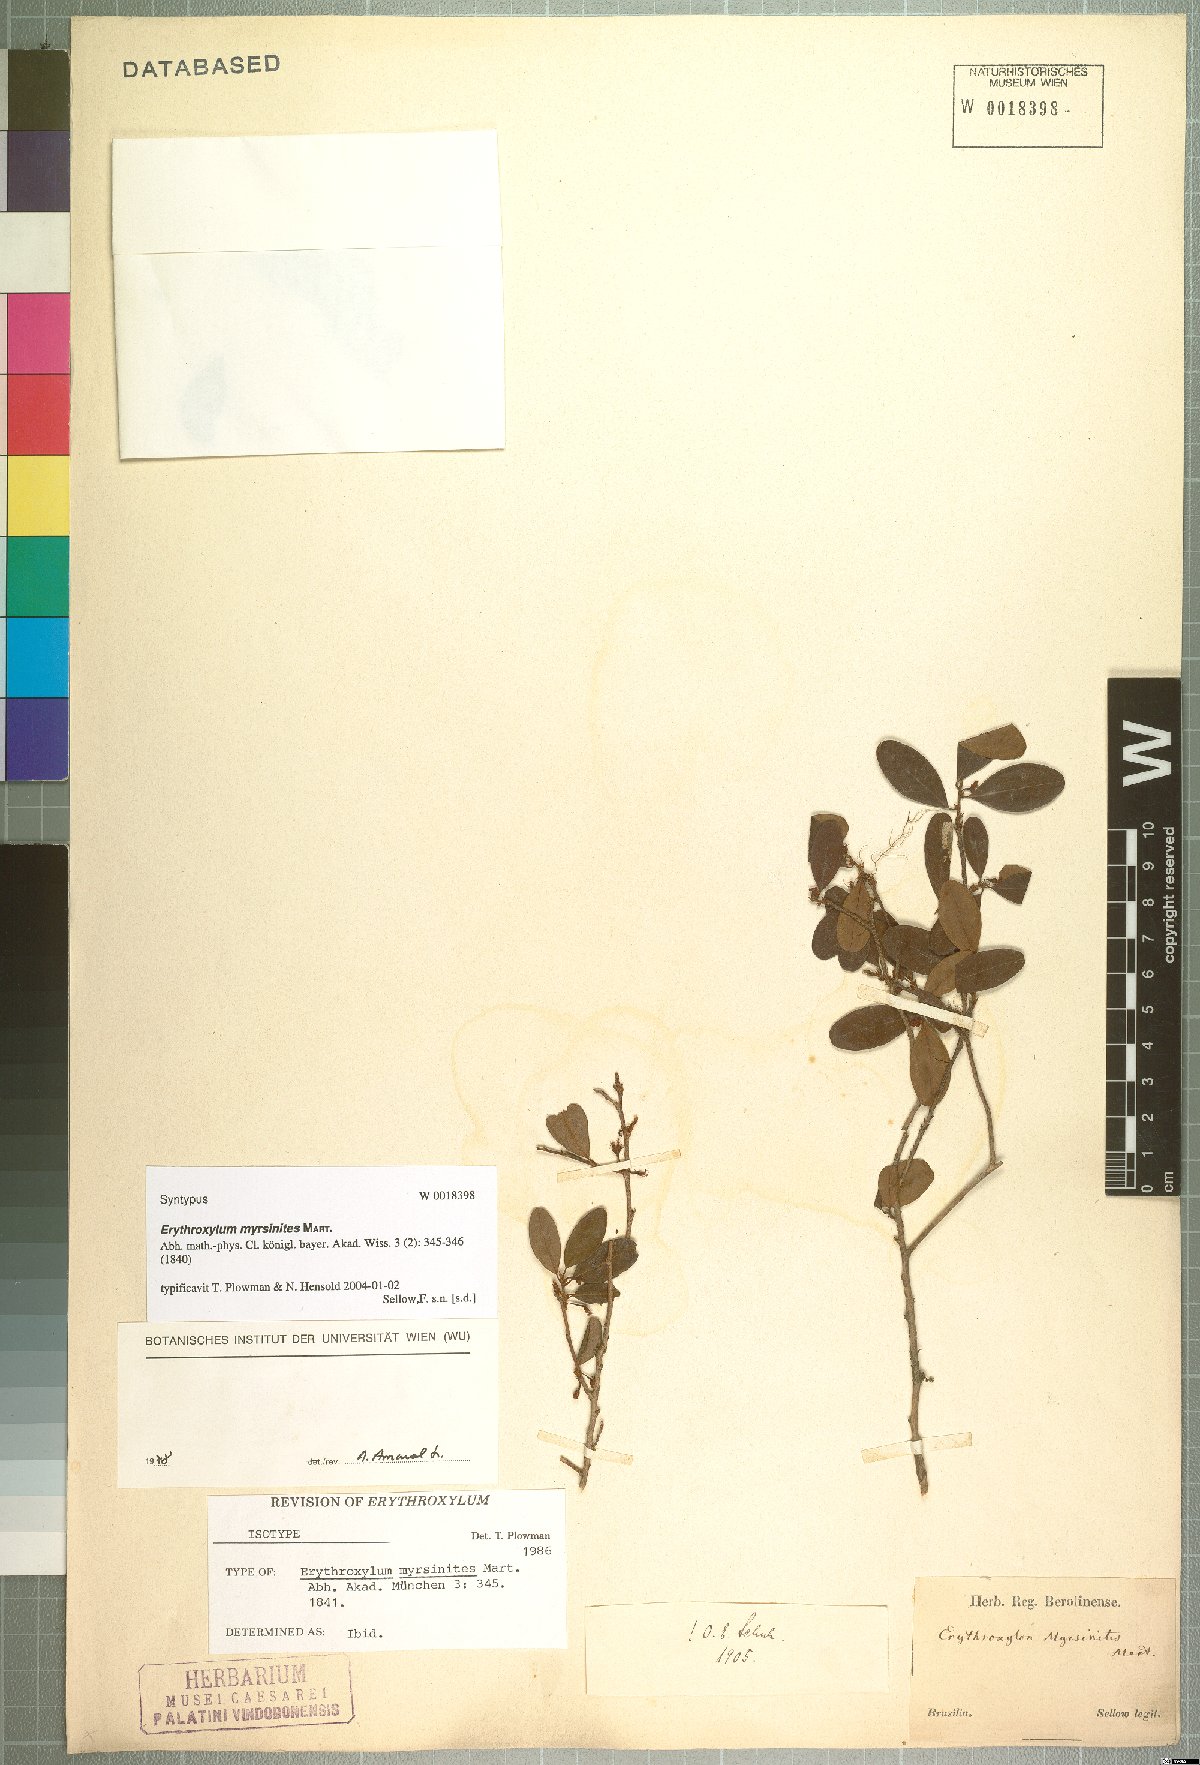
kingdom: Plantae
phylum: Tracheophyta
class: Magnoliopsida
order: Malpighiales
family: Erythroxylaceae
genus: Erythroxylum
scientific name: Erythroxylum myrsinites
